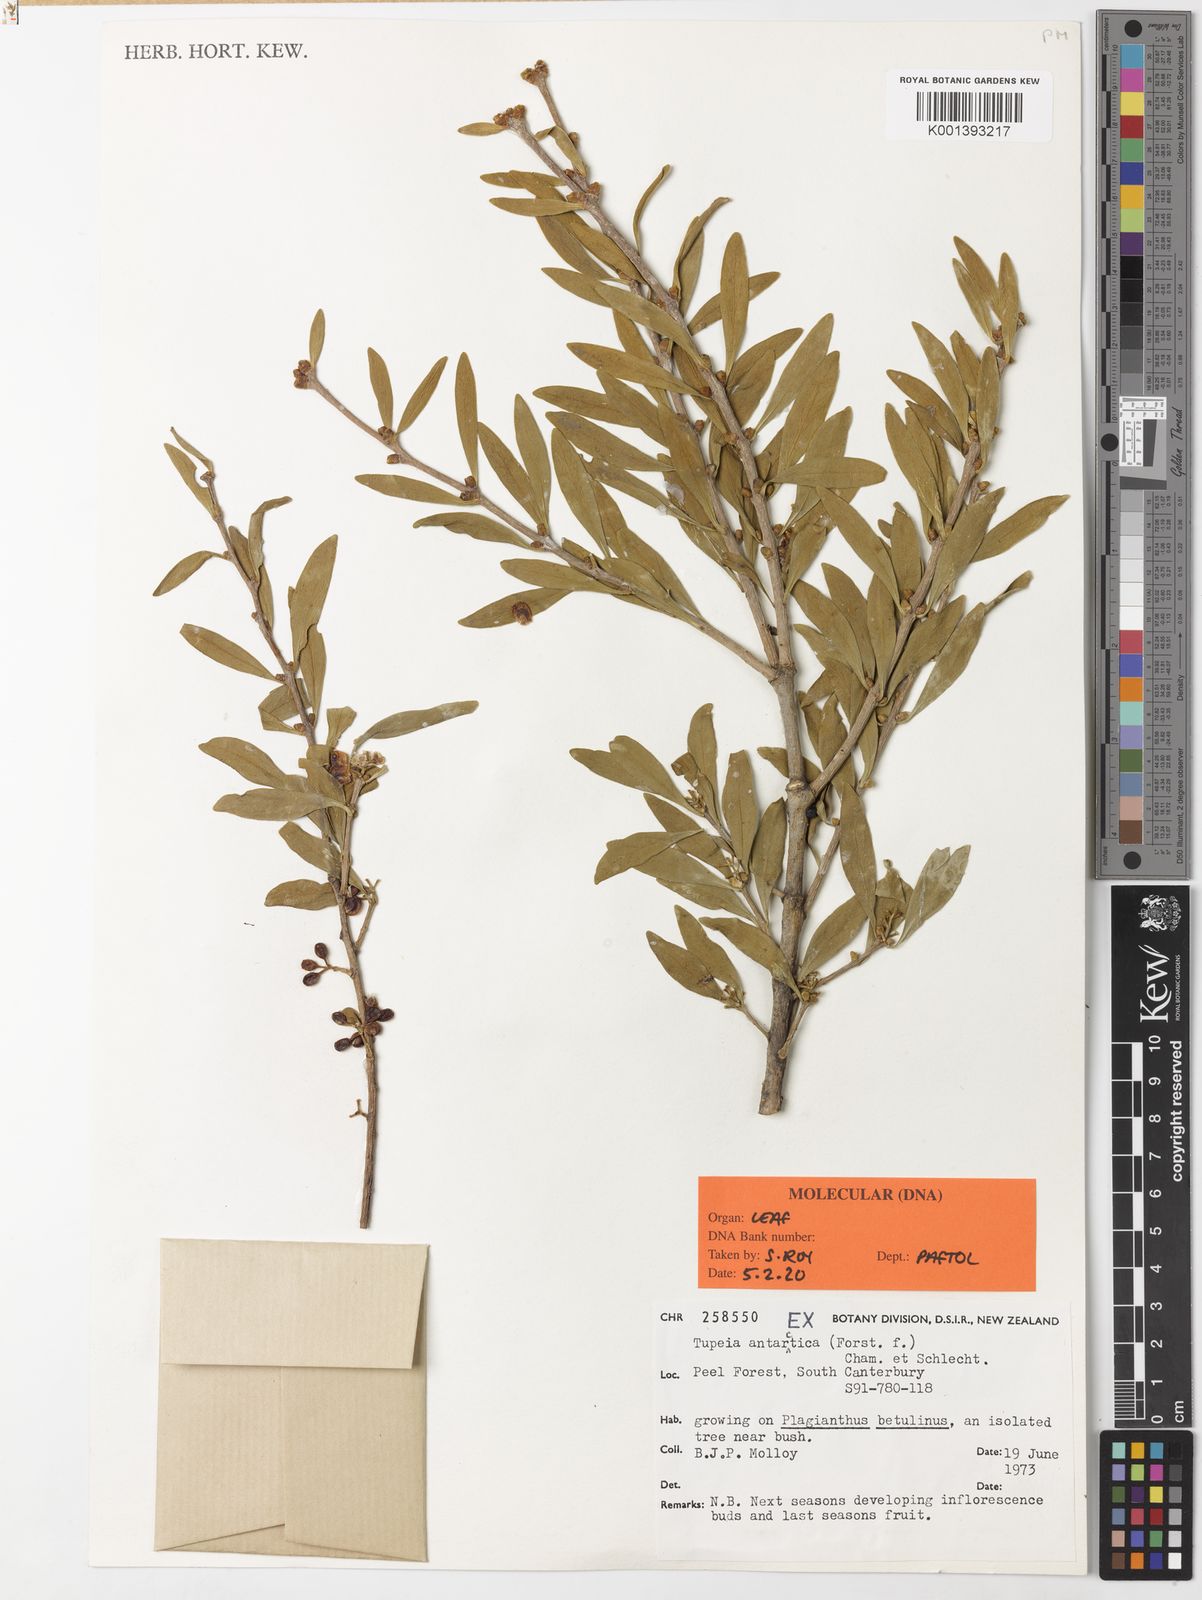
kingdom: Plantae
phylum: Tracheophyta
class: Magnoliopsida
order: Santalales
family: Loranthaceae
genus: Tupeia
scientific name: Tupeia antarctica
